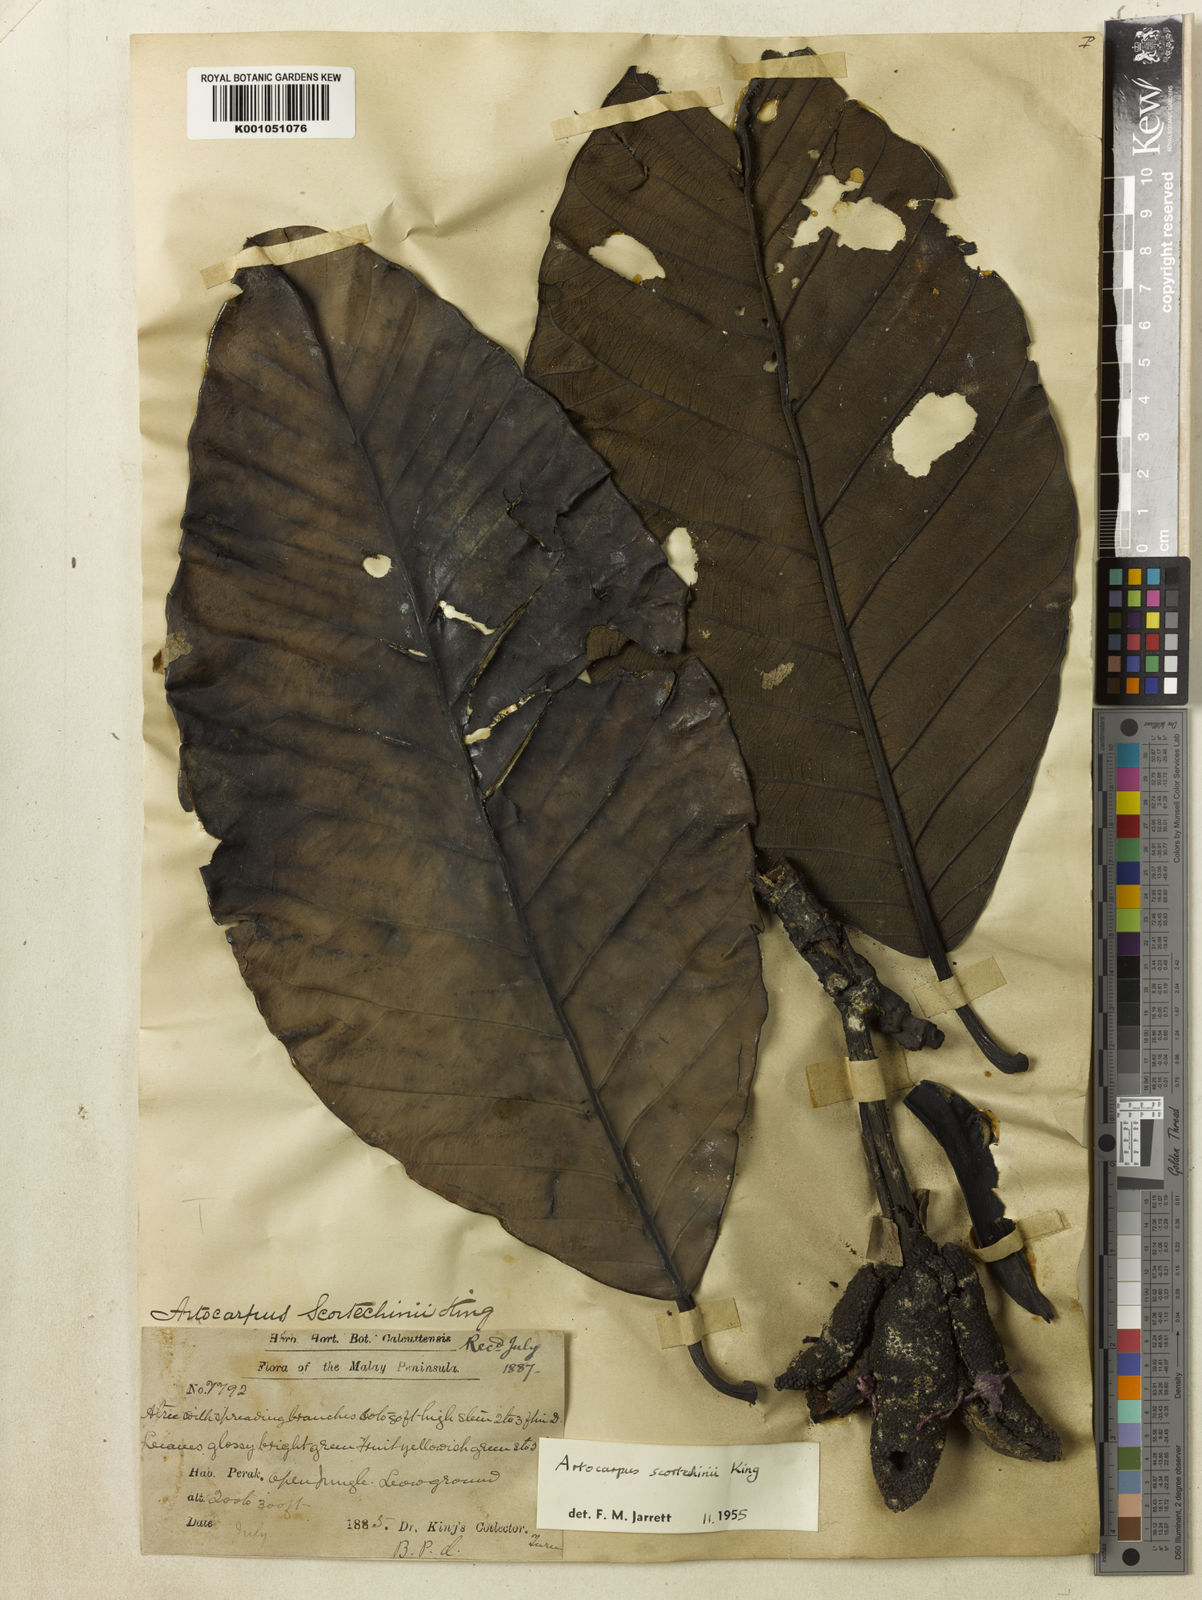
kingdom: Plantae
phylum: Tracheophyta
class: Magnoliopsida
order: Rosales
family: Moraceae
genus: Artocarpus
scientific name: Artocarpus elasticus
